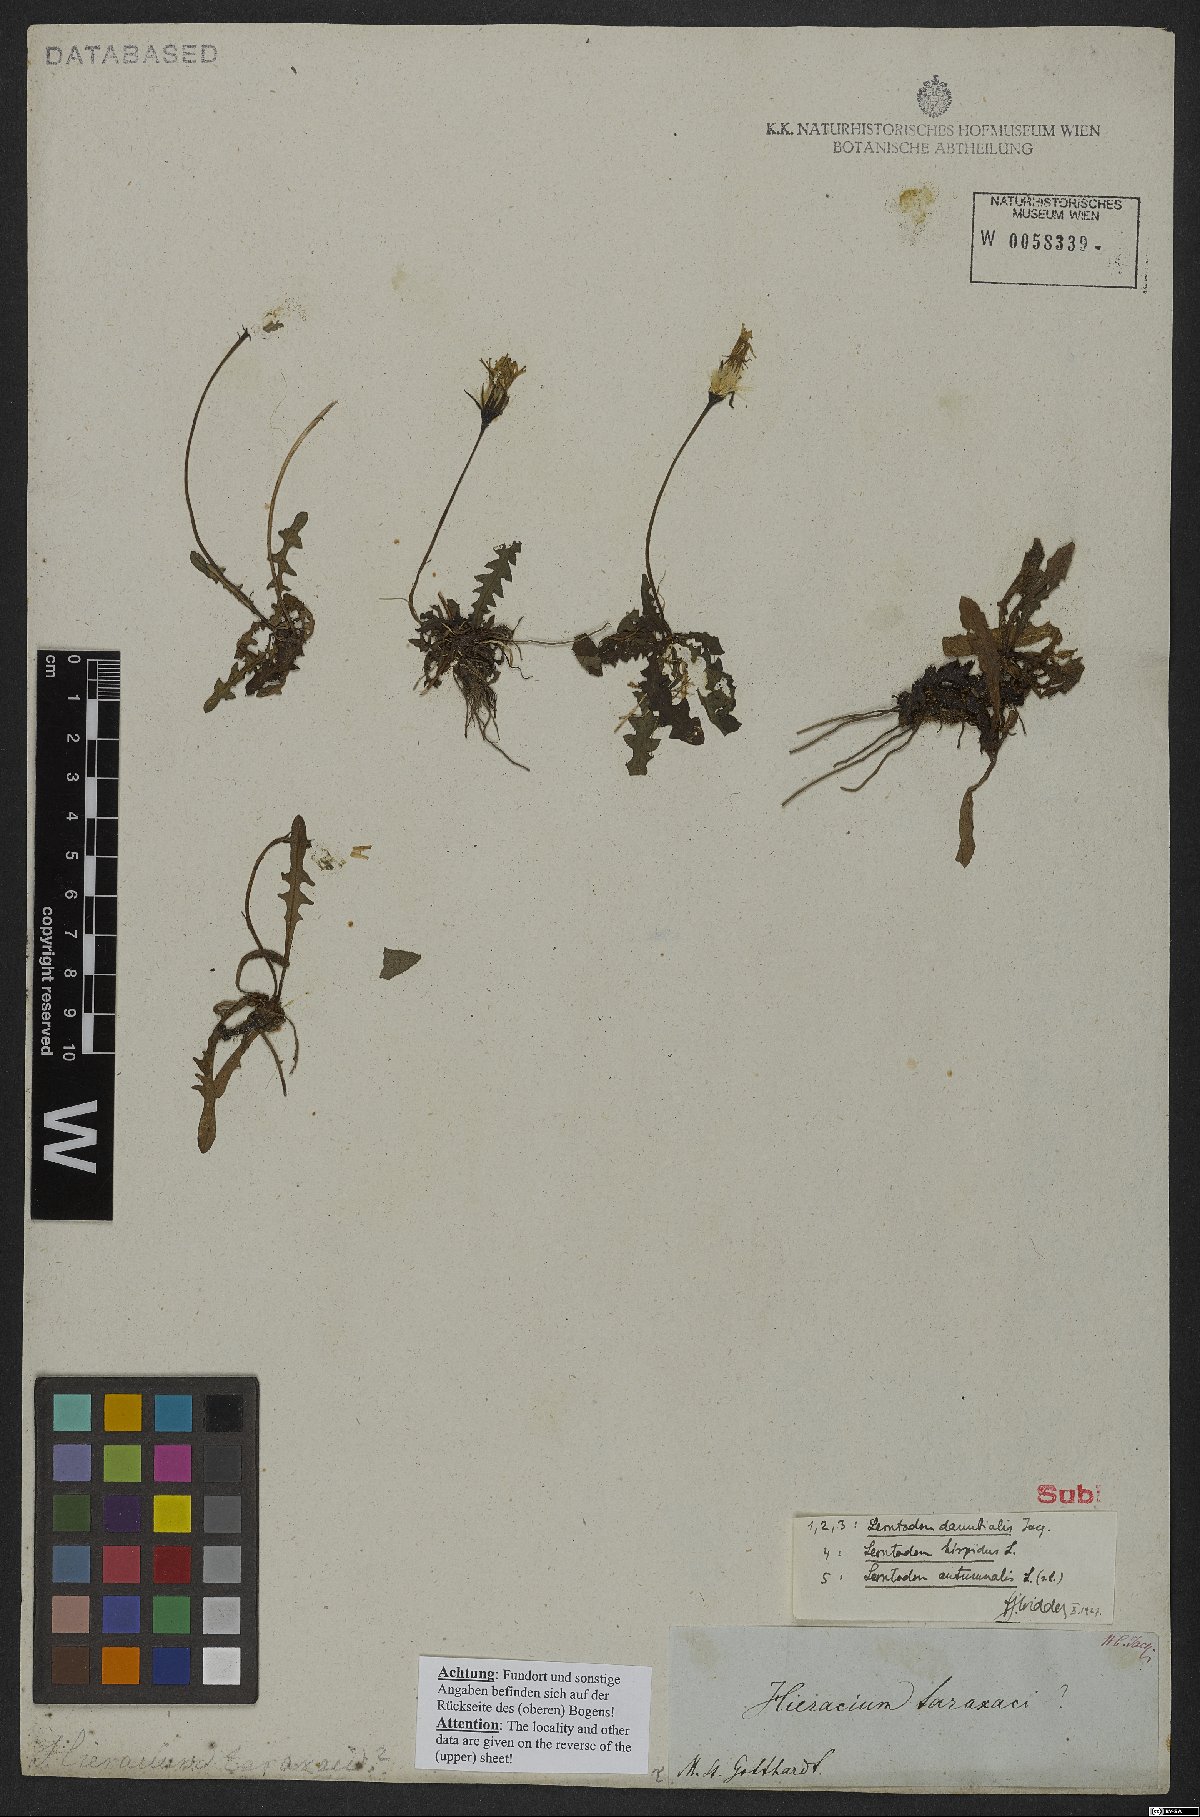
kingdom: Plantae
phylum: Tracheophyta
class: Magnoliopsida
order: Asterales
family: Asteraceae
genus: Leontodon
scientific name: Leontodon hispidus
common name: Rough hawkbit
